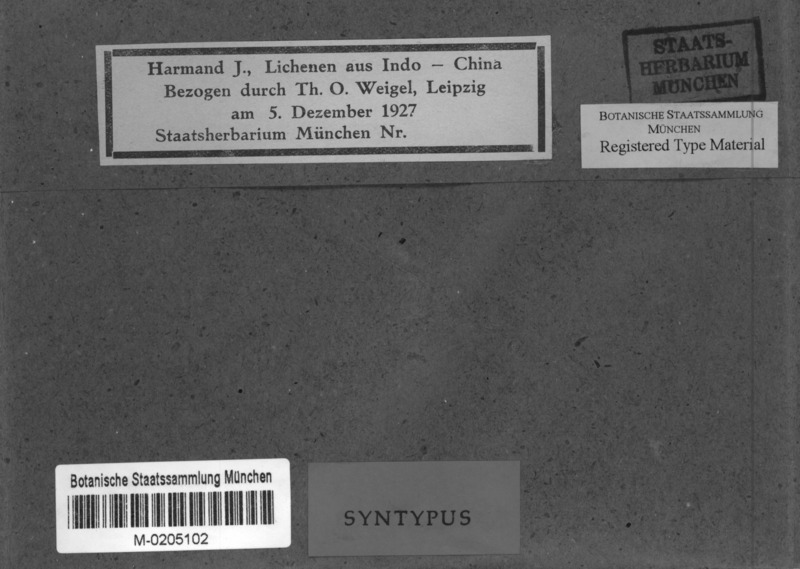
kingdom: Fungi
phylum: Ascomycota
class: Lecanoromycetes
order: Lecanorales
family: Ramalinaceae
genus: Bacidia
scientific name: Bacidia
